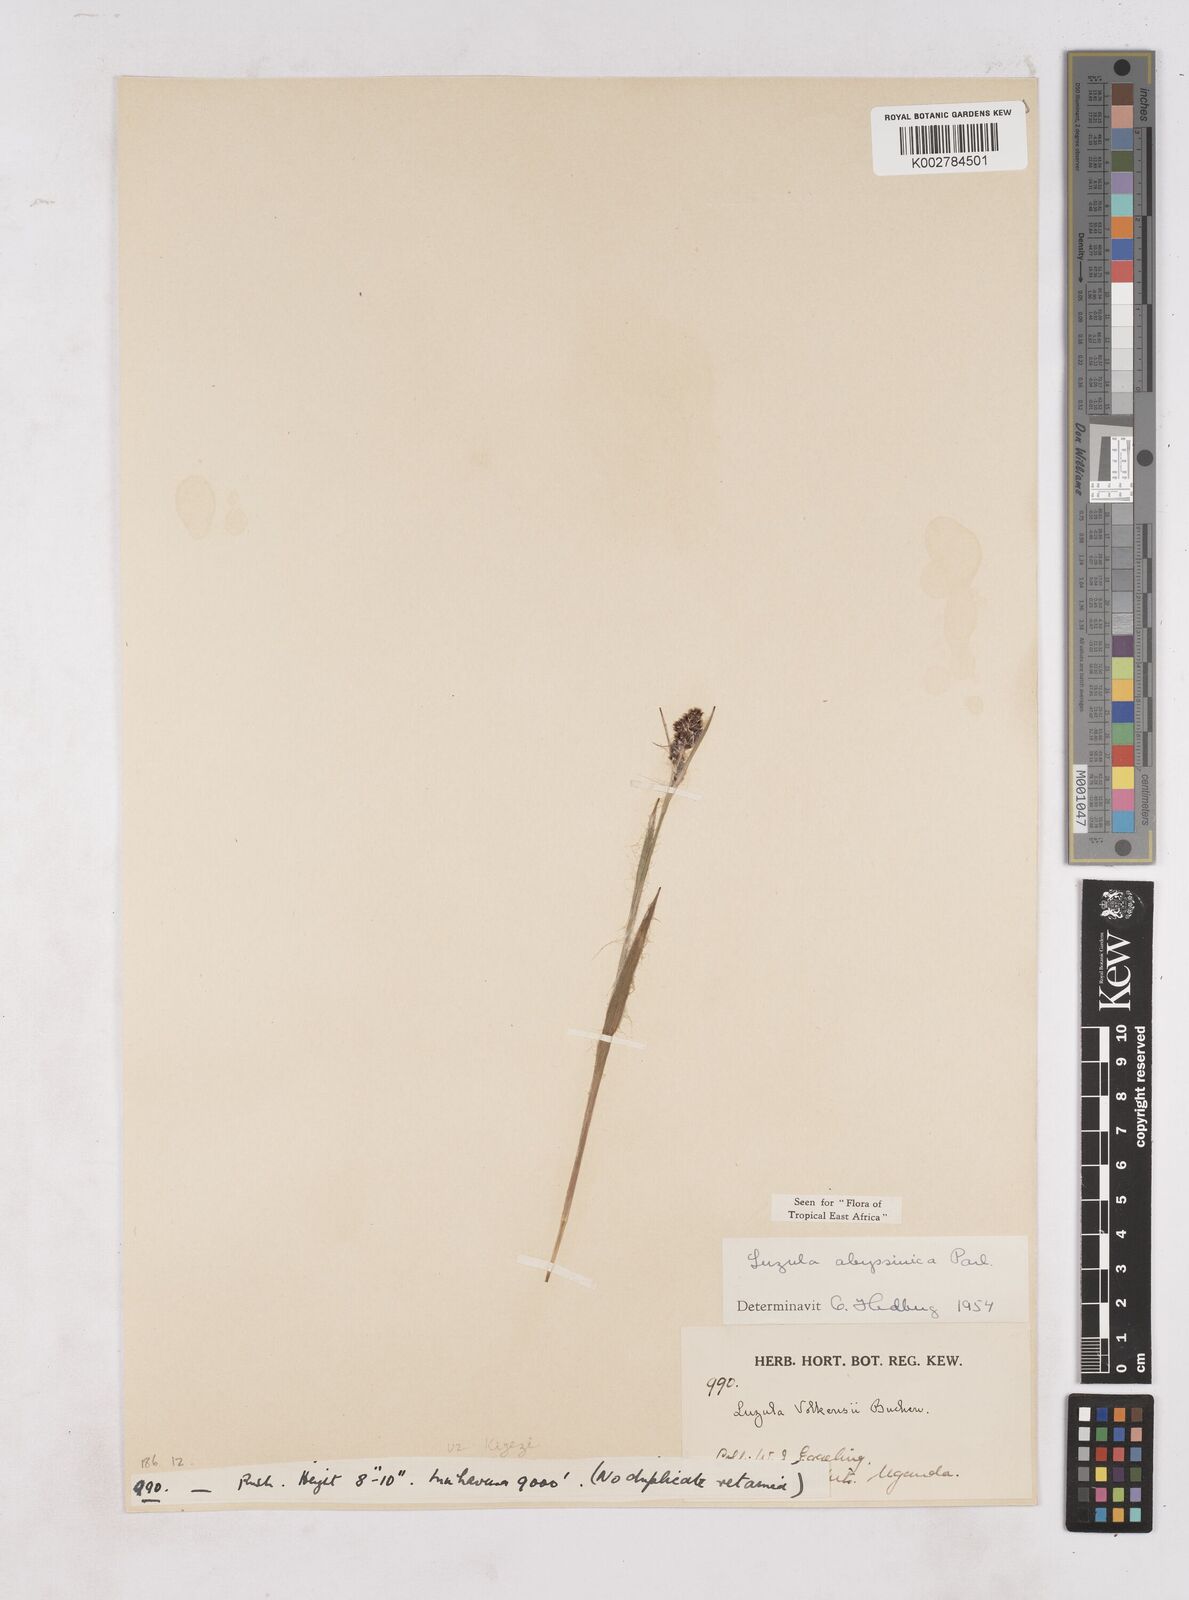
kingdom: Plantae
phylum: Tracheophyta
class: Liliopsida
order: Poales
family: Juncaceae
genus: Luzula
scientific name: Luzula abyssinica
